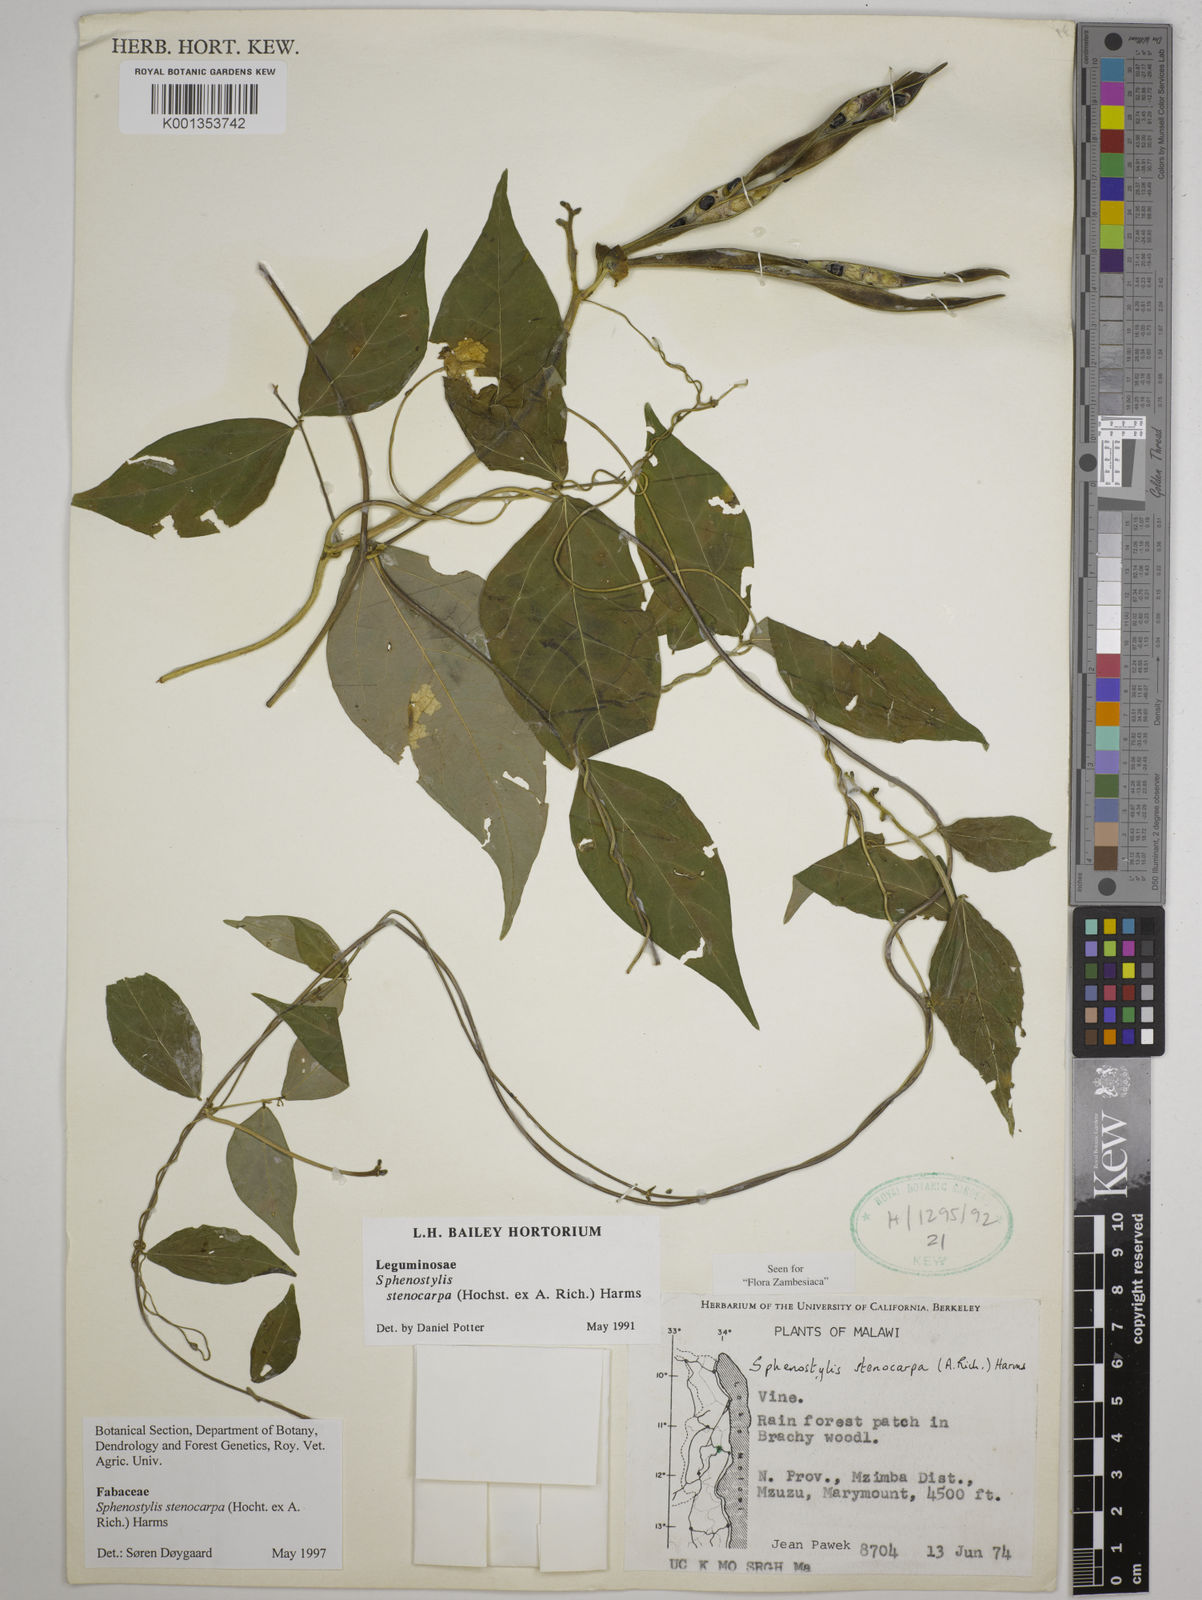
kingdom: Plantae
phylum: Tracheophyta
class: Magnoliopsida
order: Fabales
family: Fabaceae
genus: Sphenostylis
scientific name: Sphenostylis stenocarpa
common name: Yam-pea
